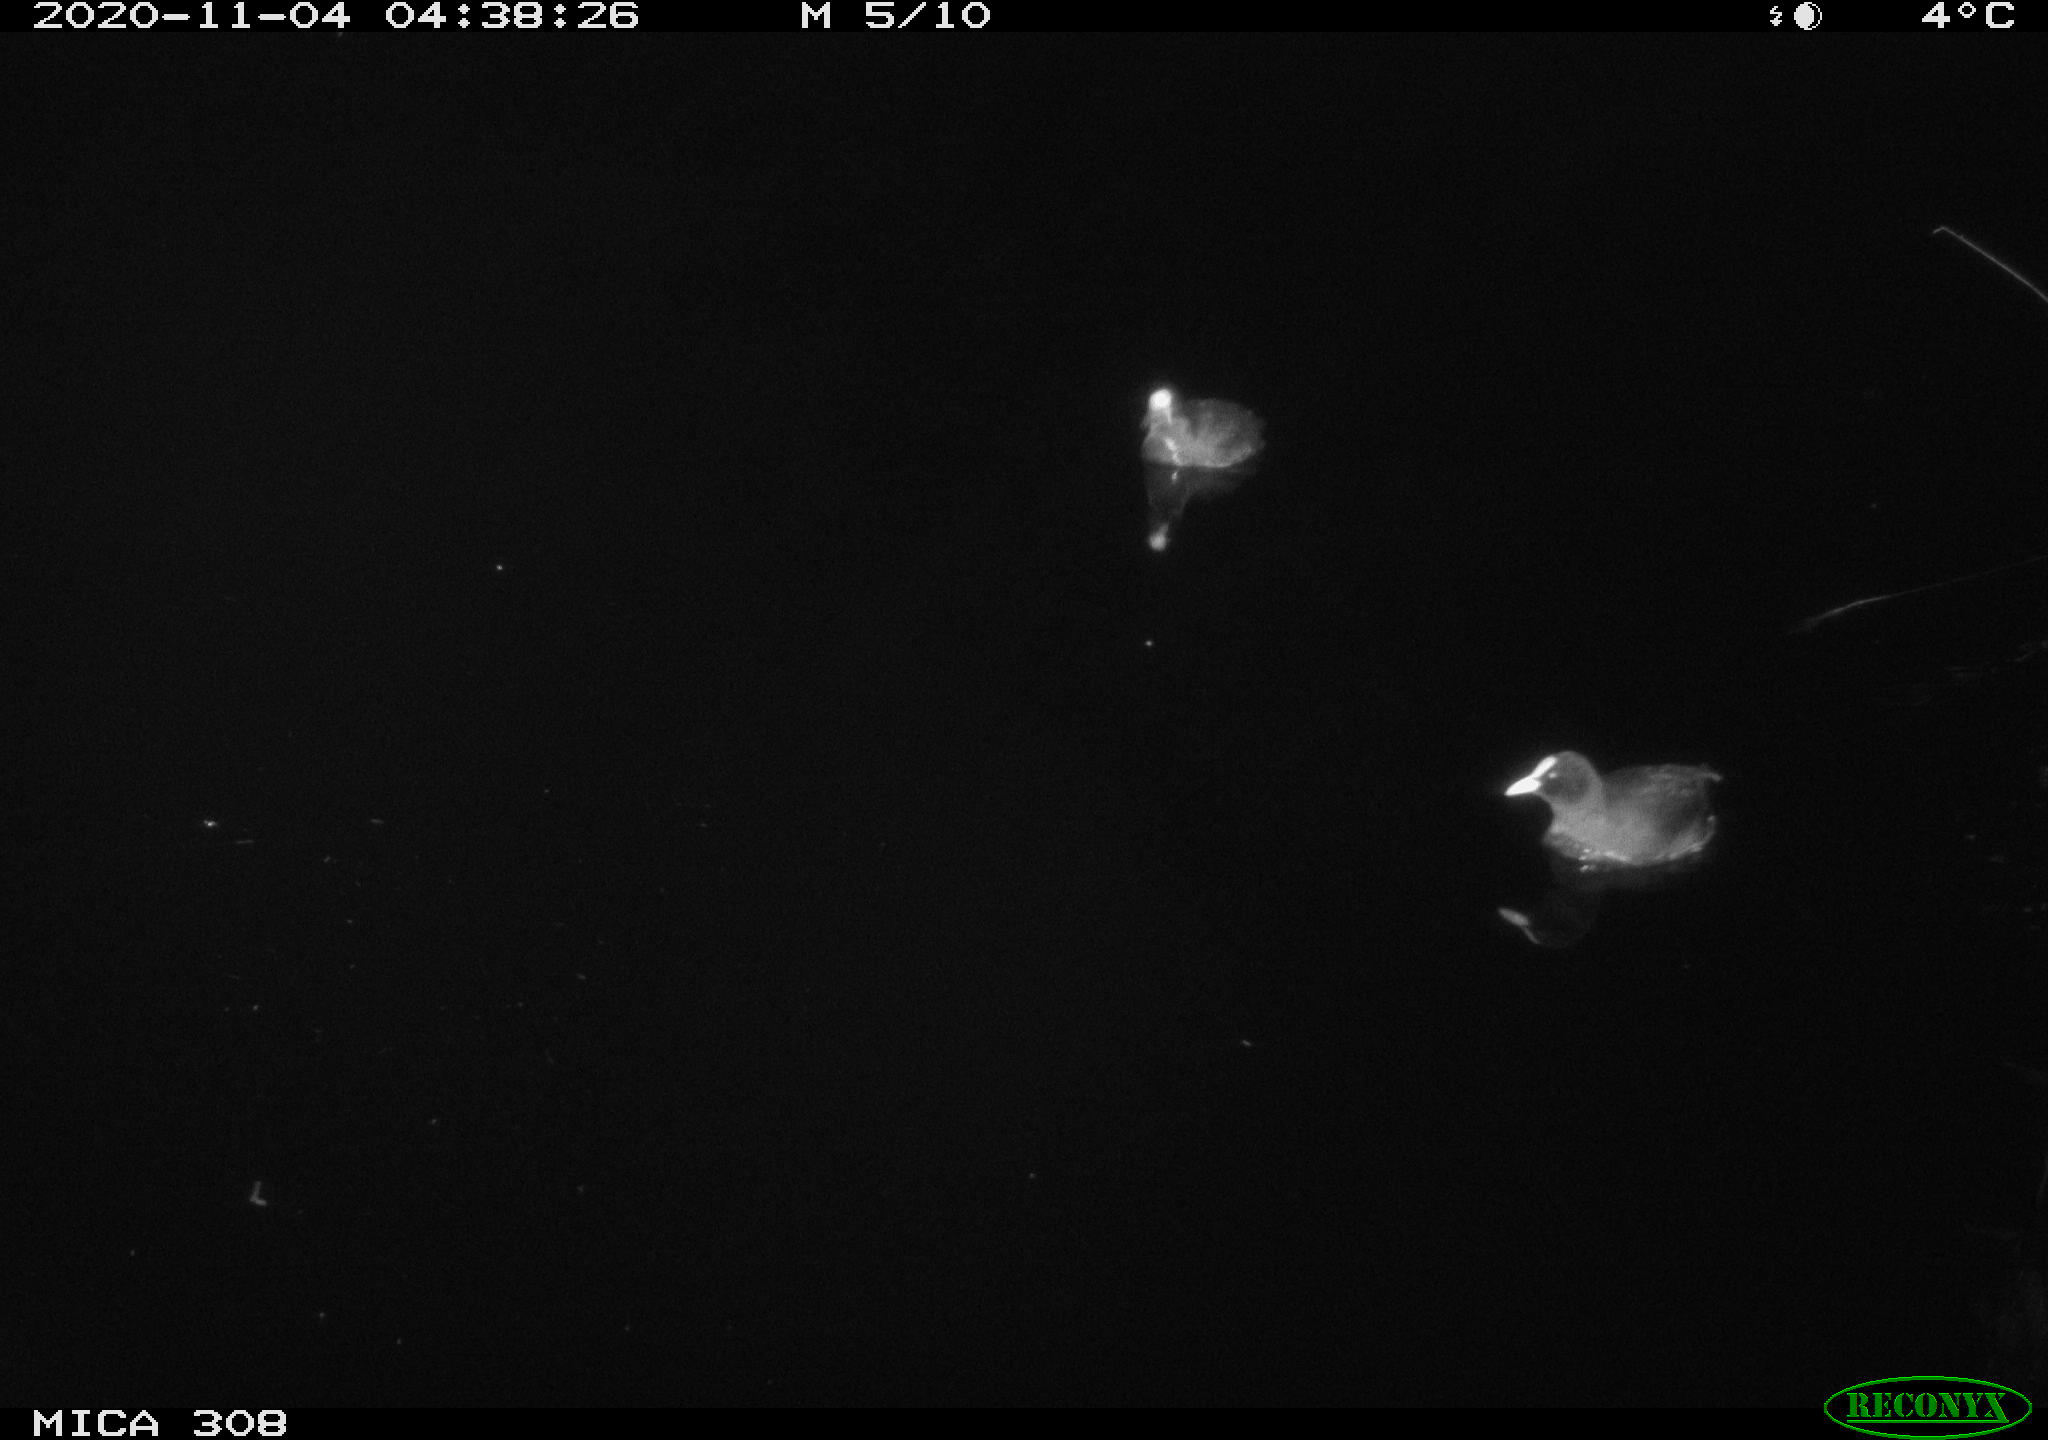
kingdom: Animalia
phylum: Chordata
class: Aves
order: Gruiformes
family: Rallidae
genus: Gallinula
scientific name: Gallinula chloropus
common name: Common moorhen
